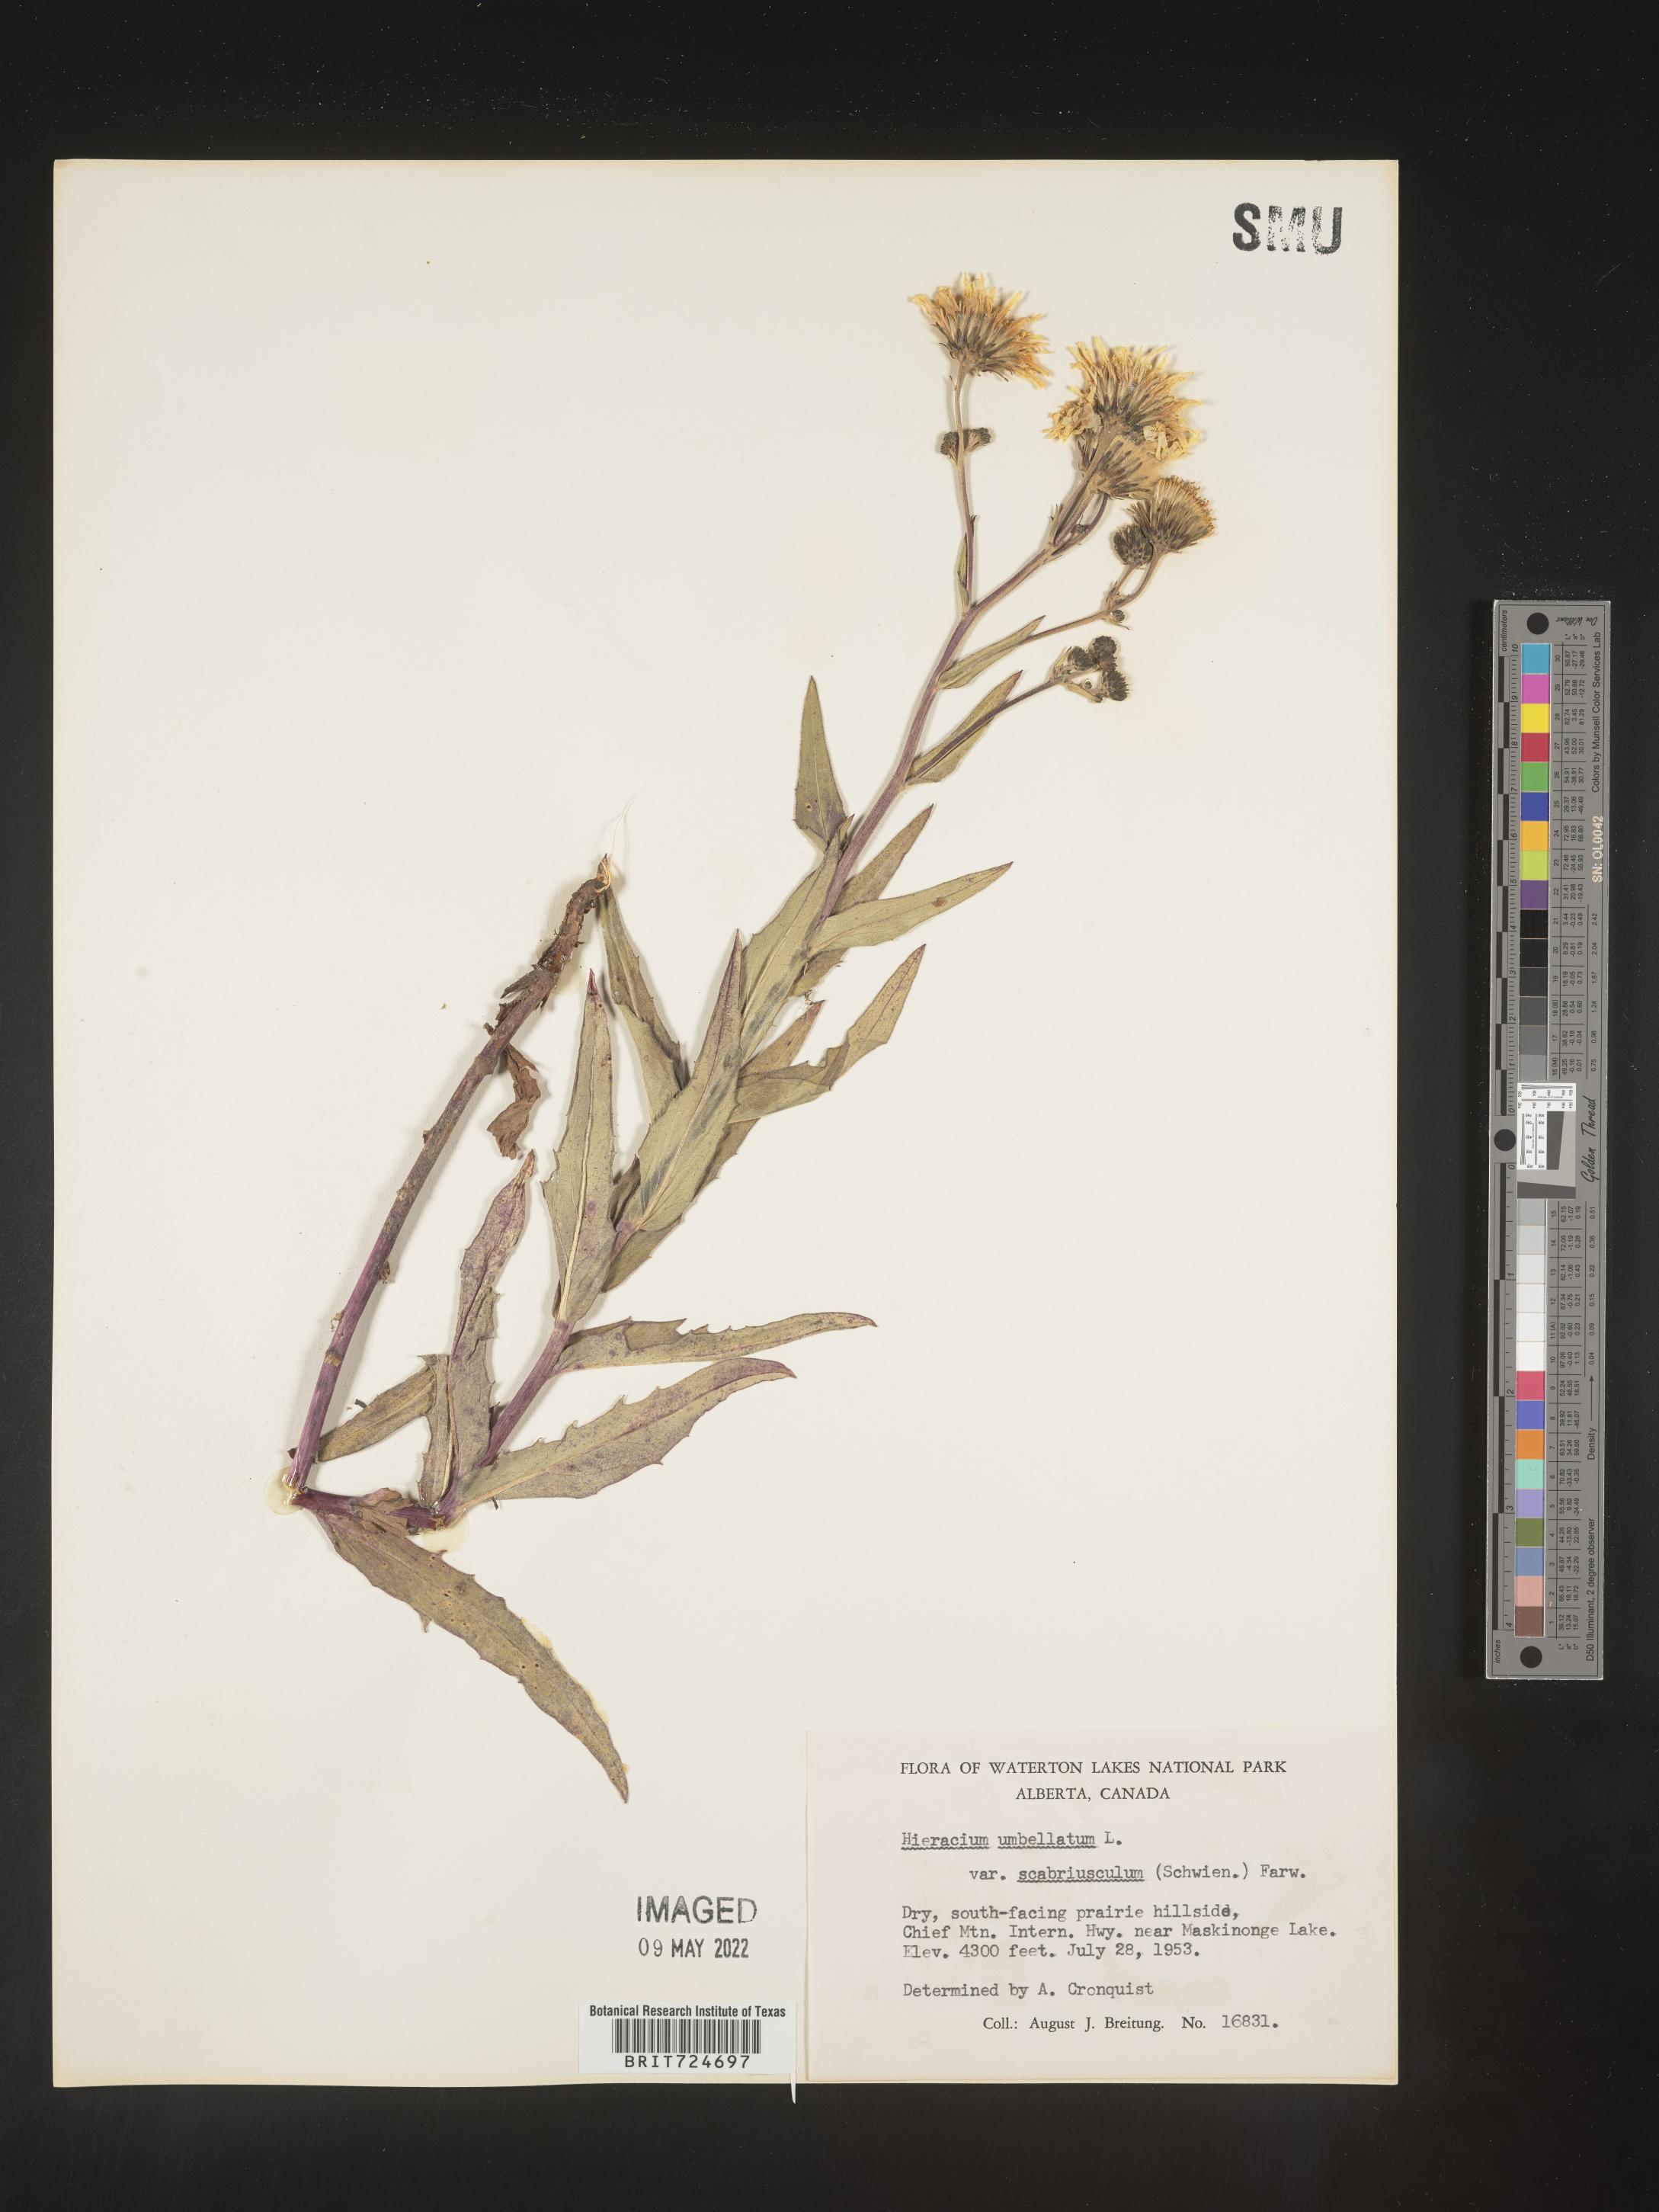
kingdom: Plantae
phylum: Tracheophyta
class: Magnoliopsida
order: Asterales
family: Asteraceae
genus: Hieracium
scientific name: Hieracium
